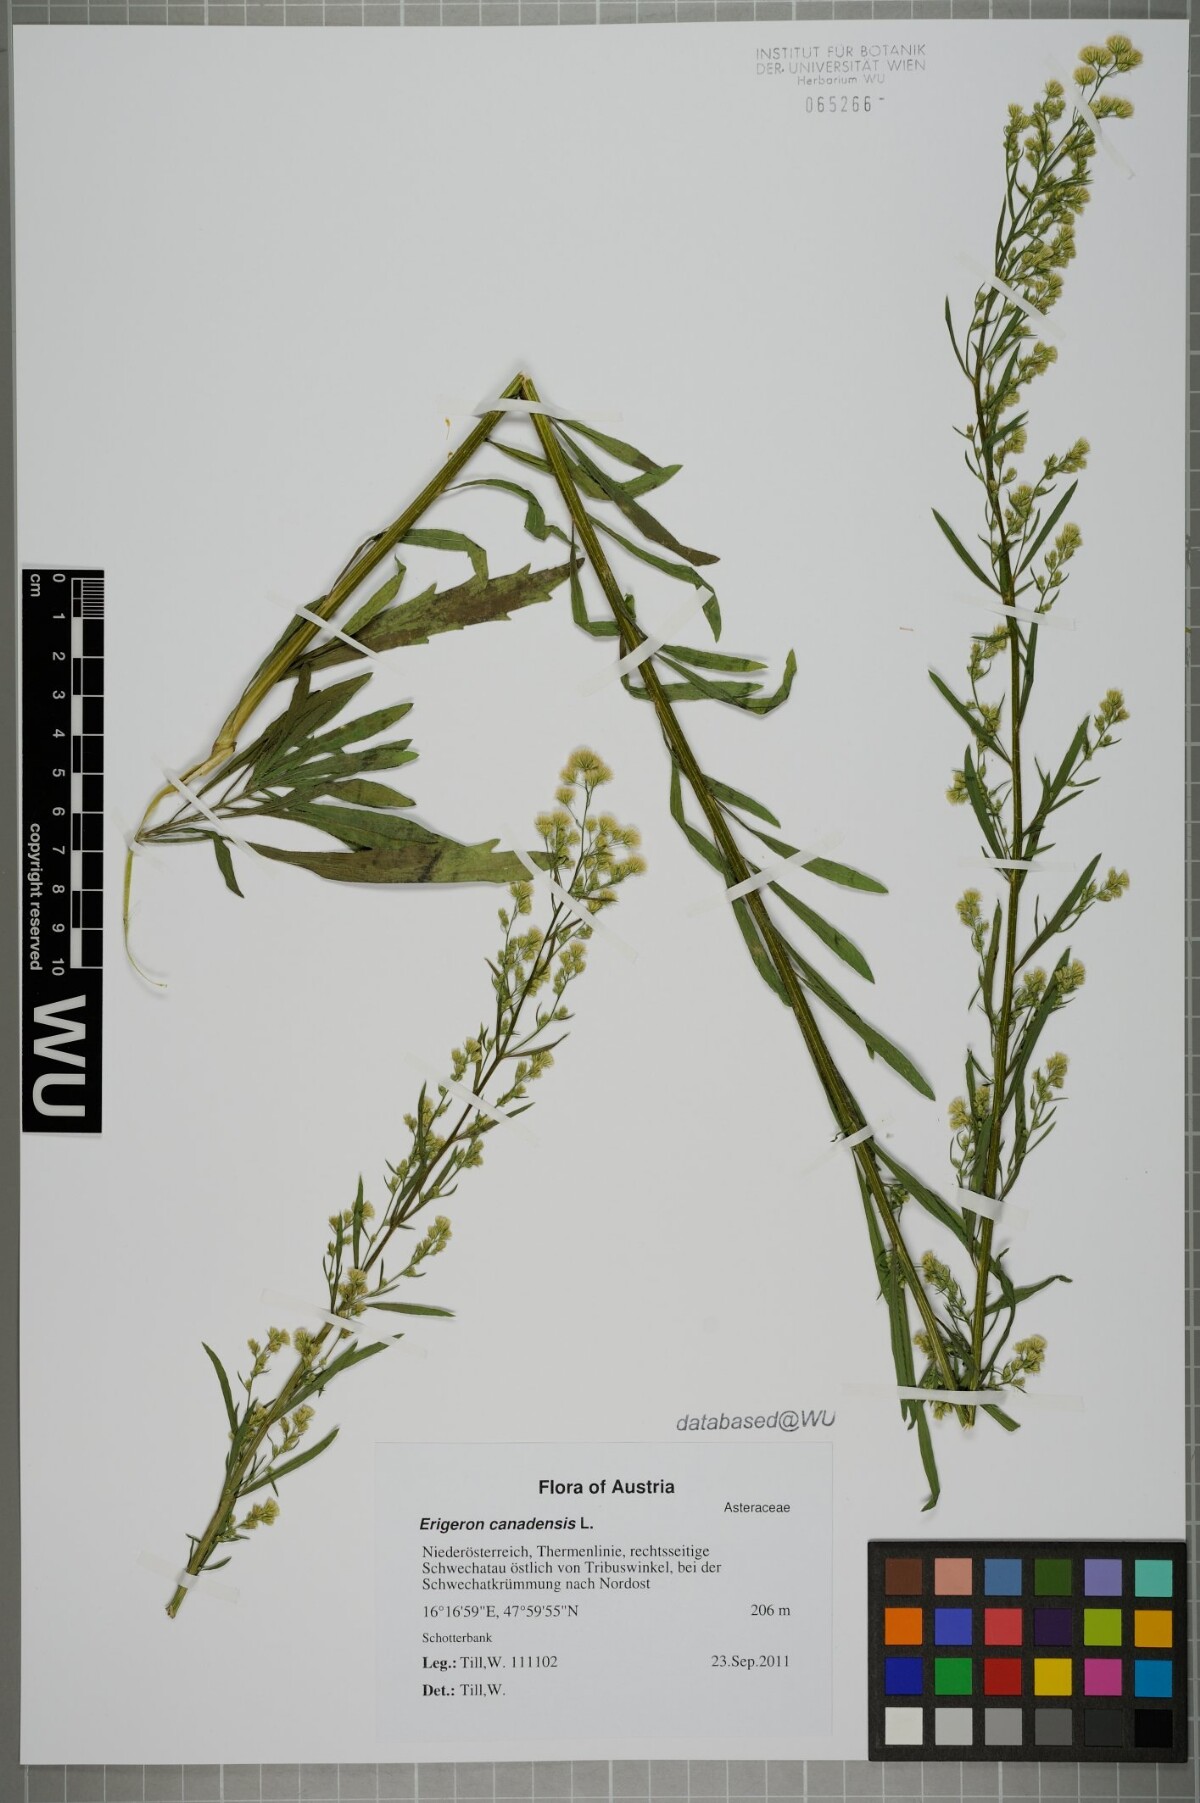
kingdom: Plantae
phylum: Tracheophyta
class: Magnoliopsida
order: Asterales
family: Asteraceae
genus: Erigeron
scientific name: Erigeron canadensis
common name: Canadian fleabane
